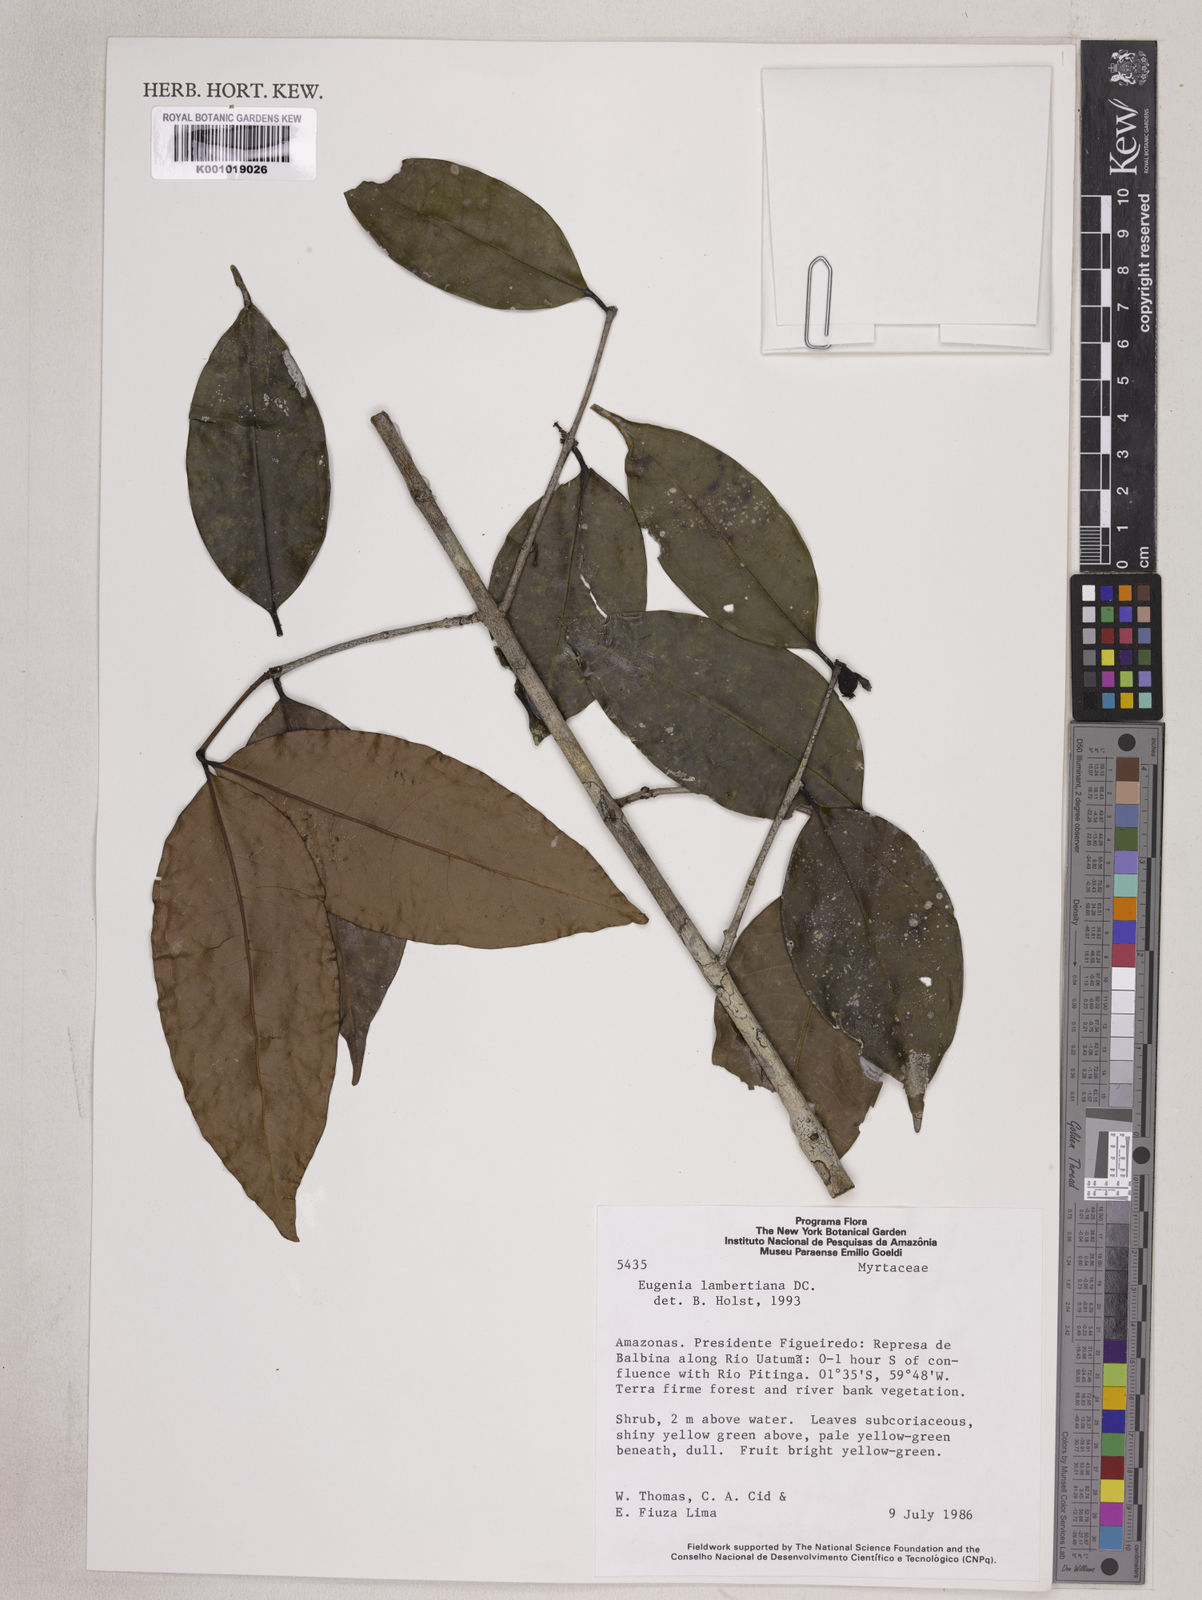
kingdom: Plantae
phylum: Tracheophyta
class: Magnoliopsida
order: Myrtales
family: Myrtaceae
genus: Eugenia
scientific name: Eugenia lambertiana
